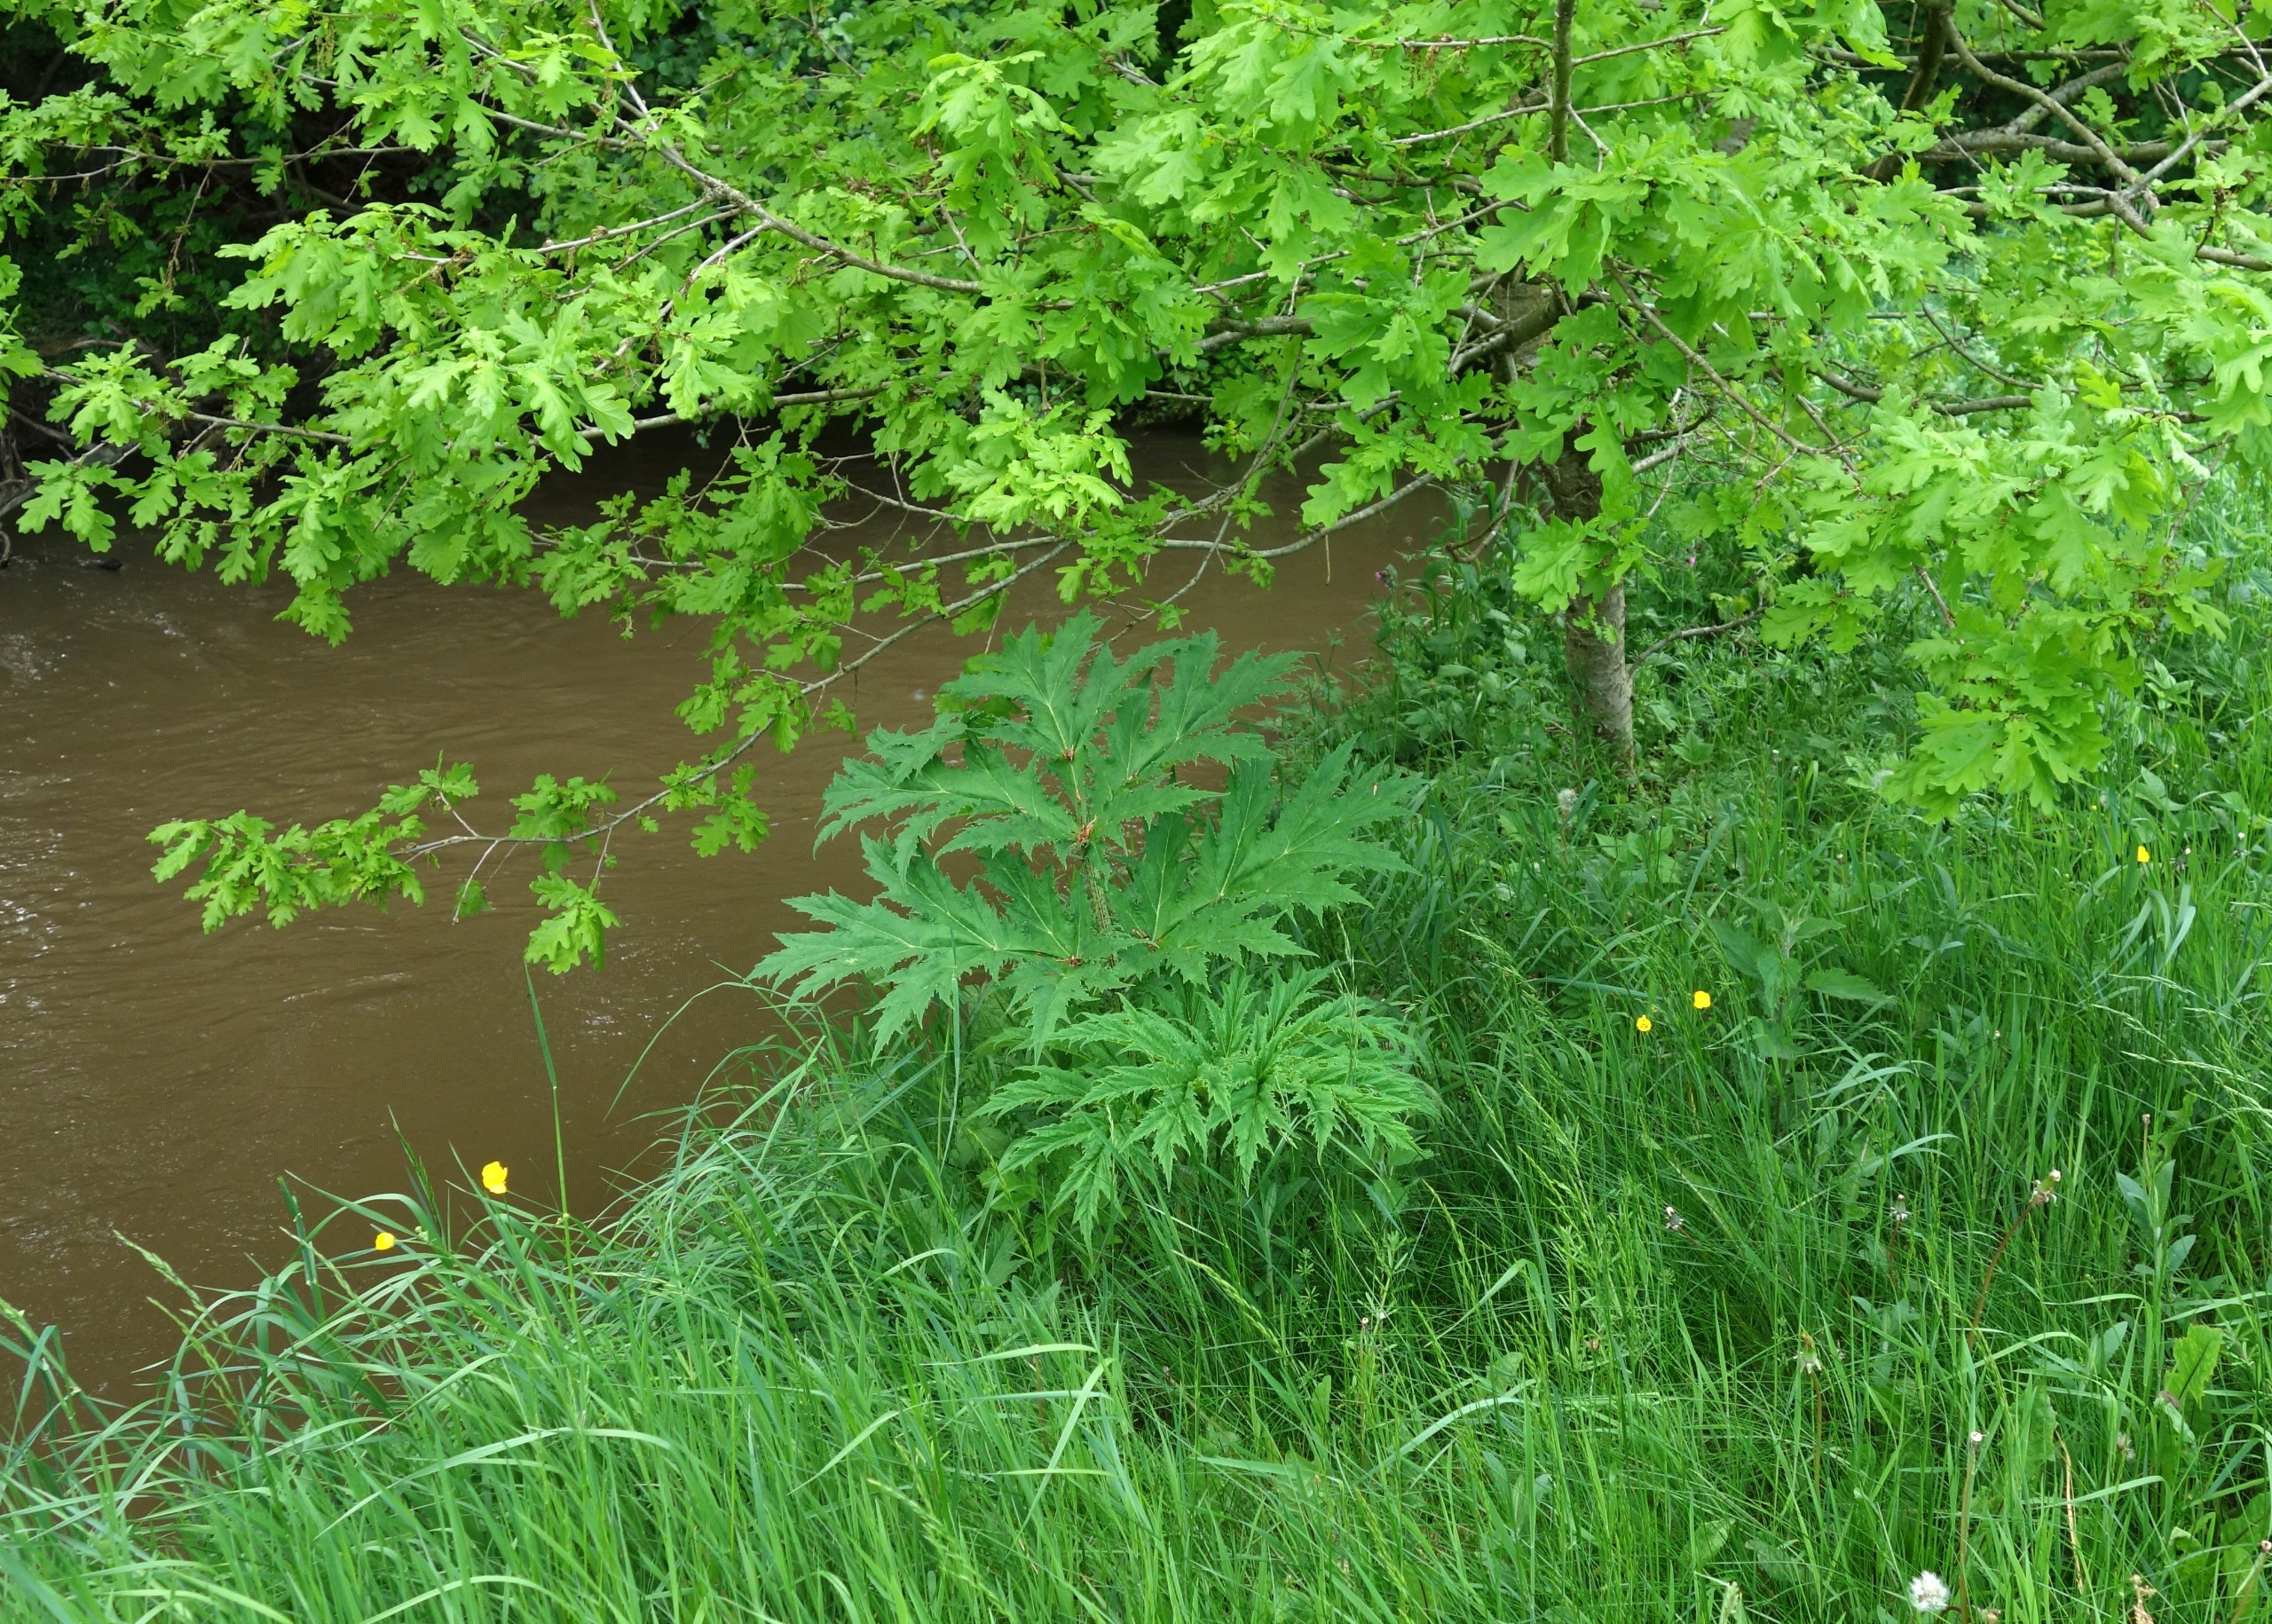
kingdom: Plantae
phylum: Tracheophyta
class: Magnoliopsida
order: Apiales
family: Apiaceae
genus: Heracleum
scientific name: Heracleum mantegazzianum
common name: Kæmpe-bjørneklo
